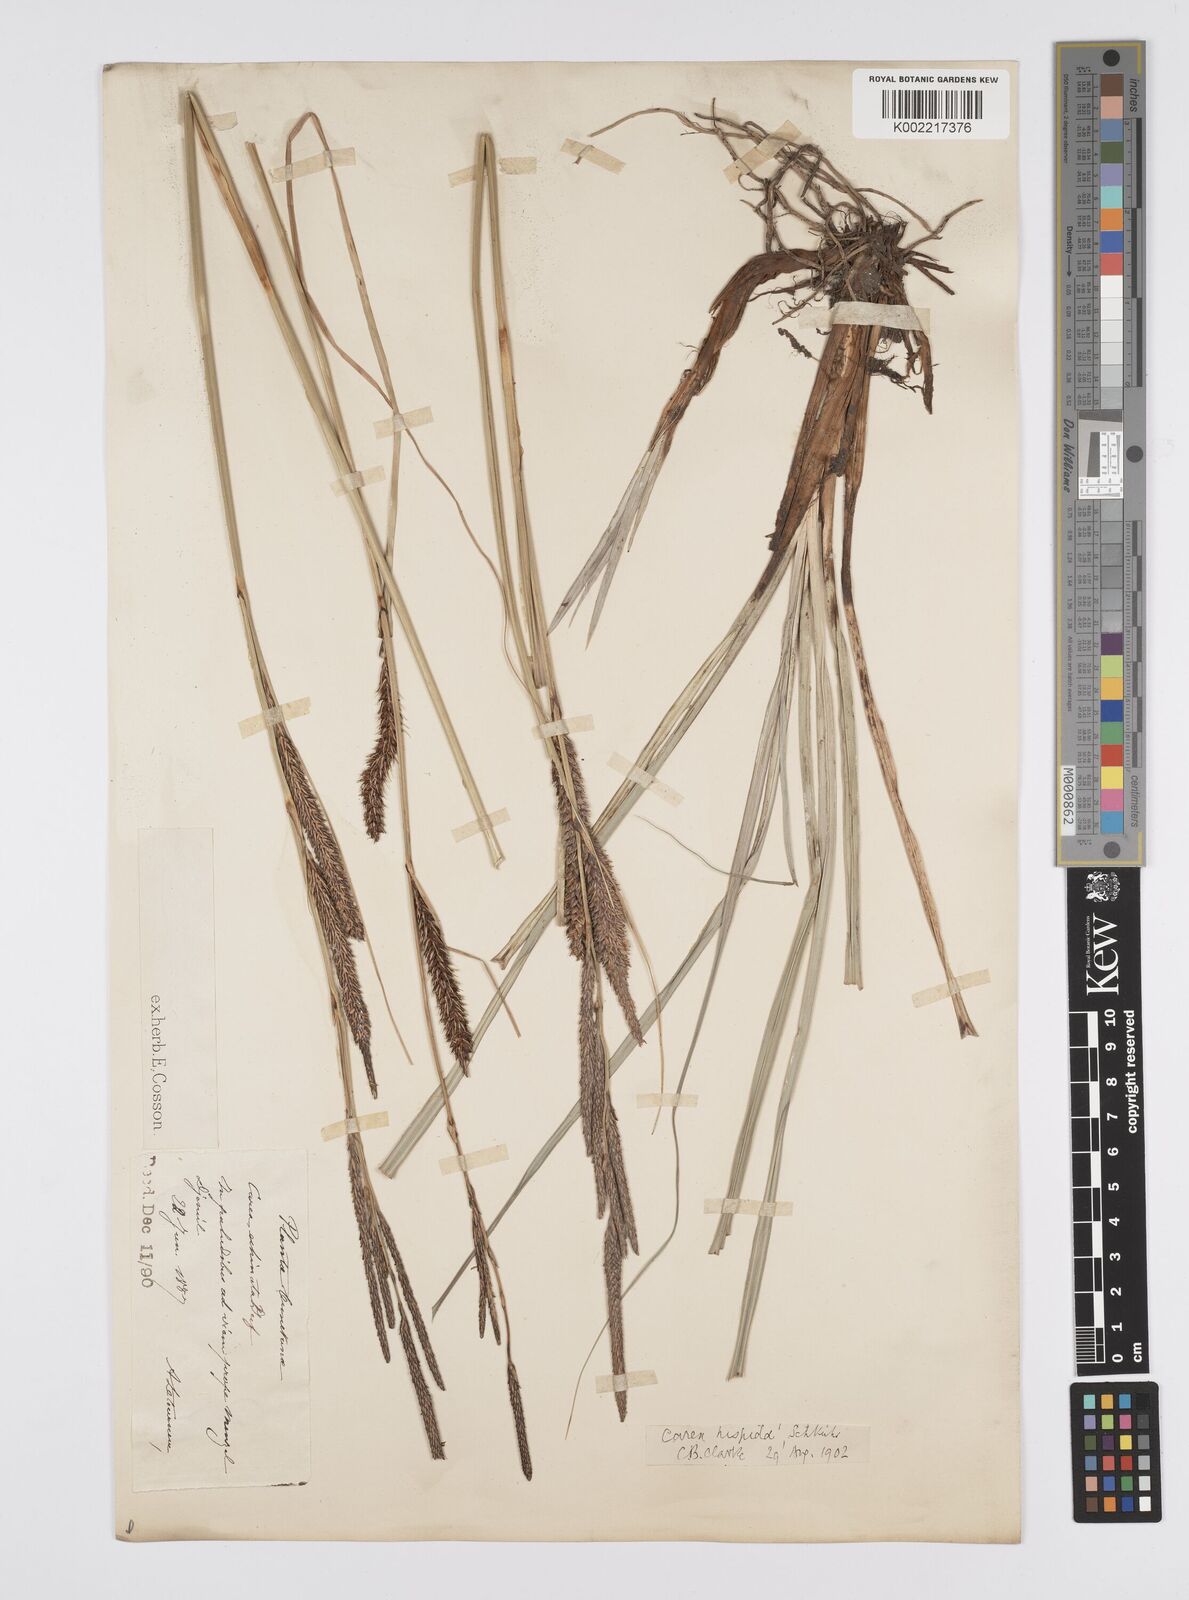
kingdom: Plantae
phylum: Tracheophyta
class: Liliopsida
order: Poales
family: Cyperaceae
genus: Carex
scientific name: Carex hispida
